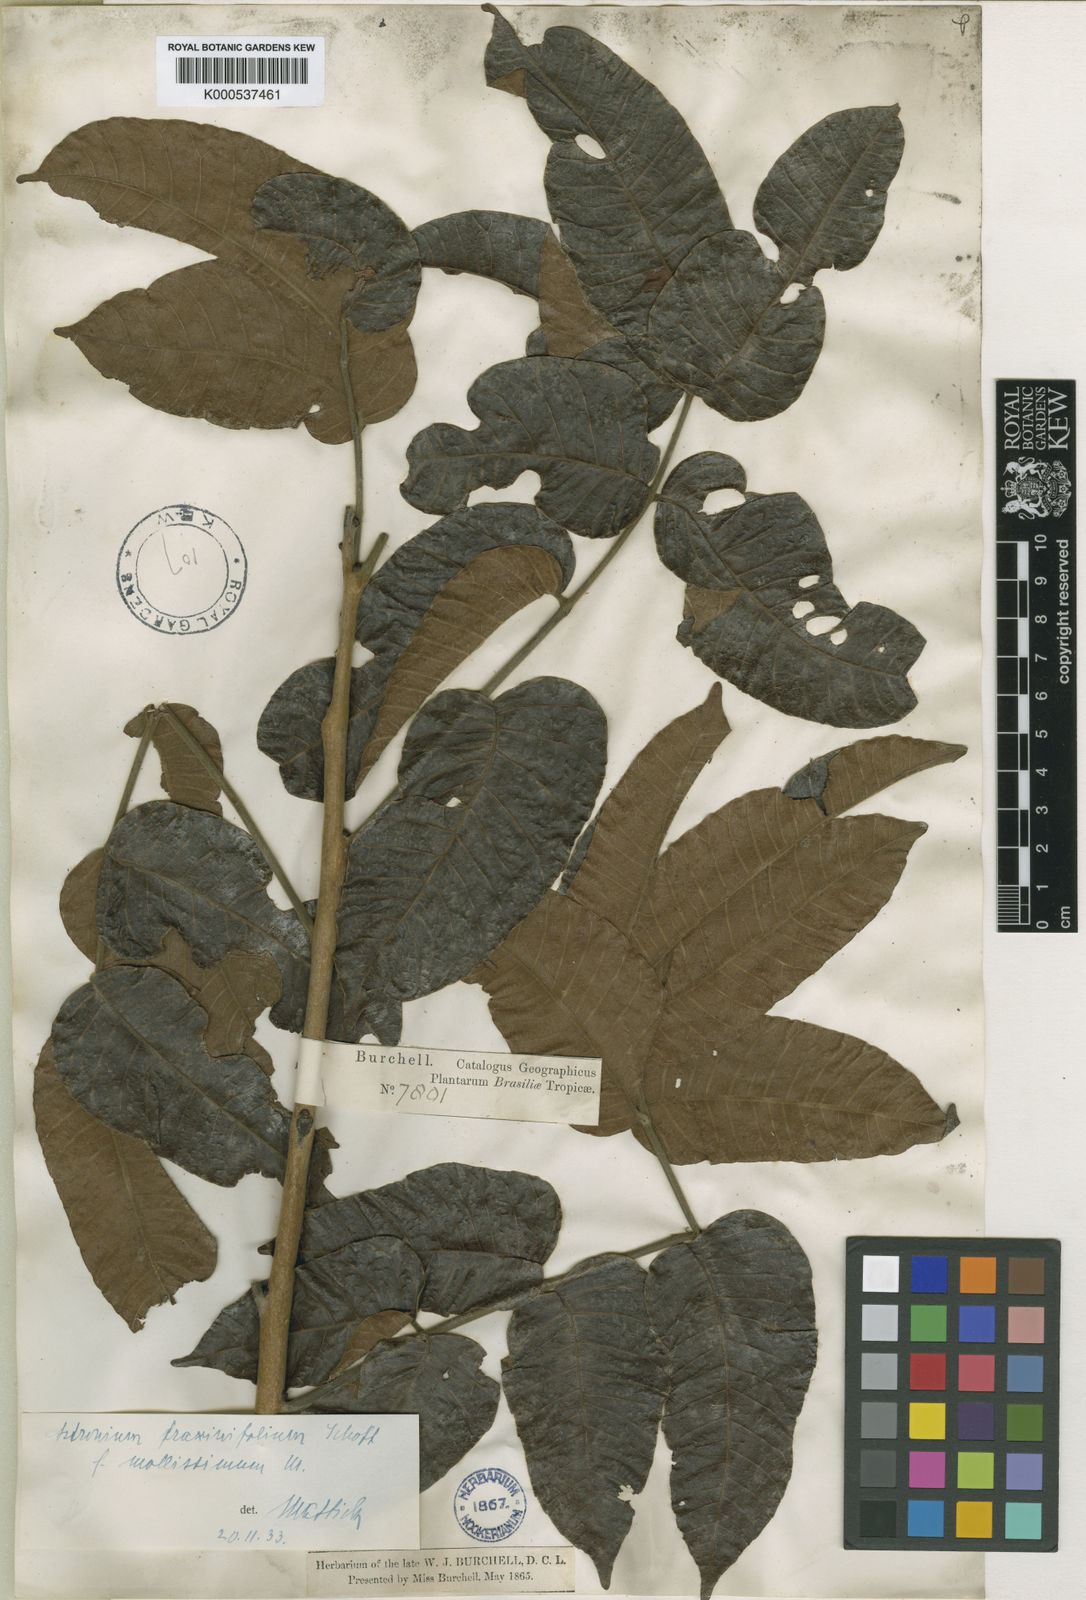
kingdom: Plantae
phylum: Tracheophyta
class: Magnoliopsida
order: Sapindales
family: Anacardiaceae
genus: Astronium
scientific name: Astronium fraxinifolium
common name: Tigerwood
